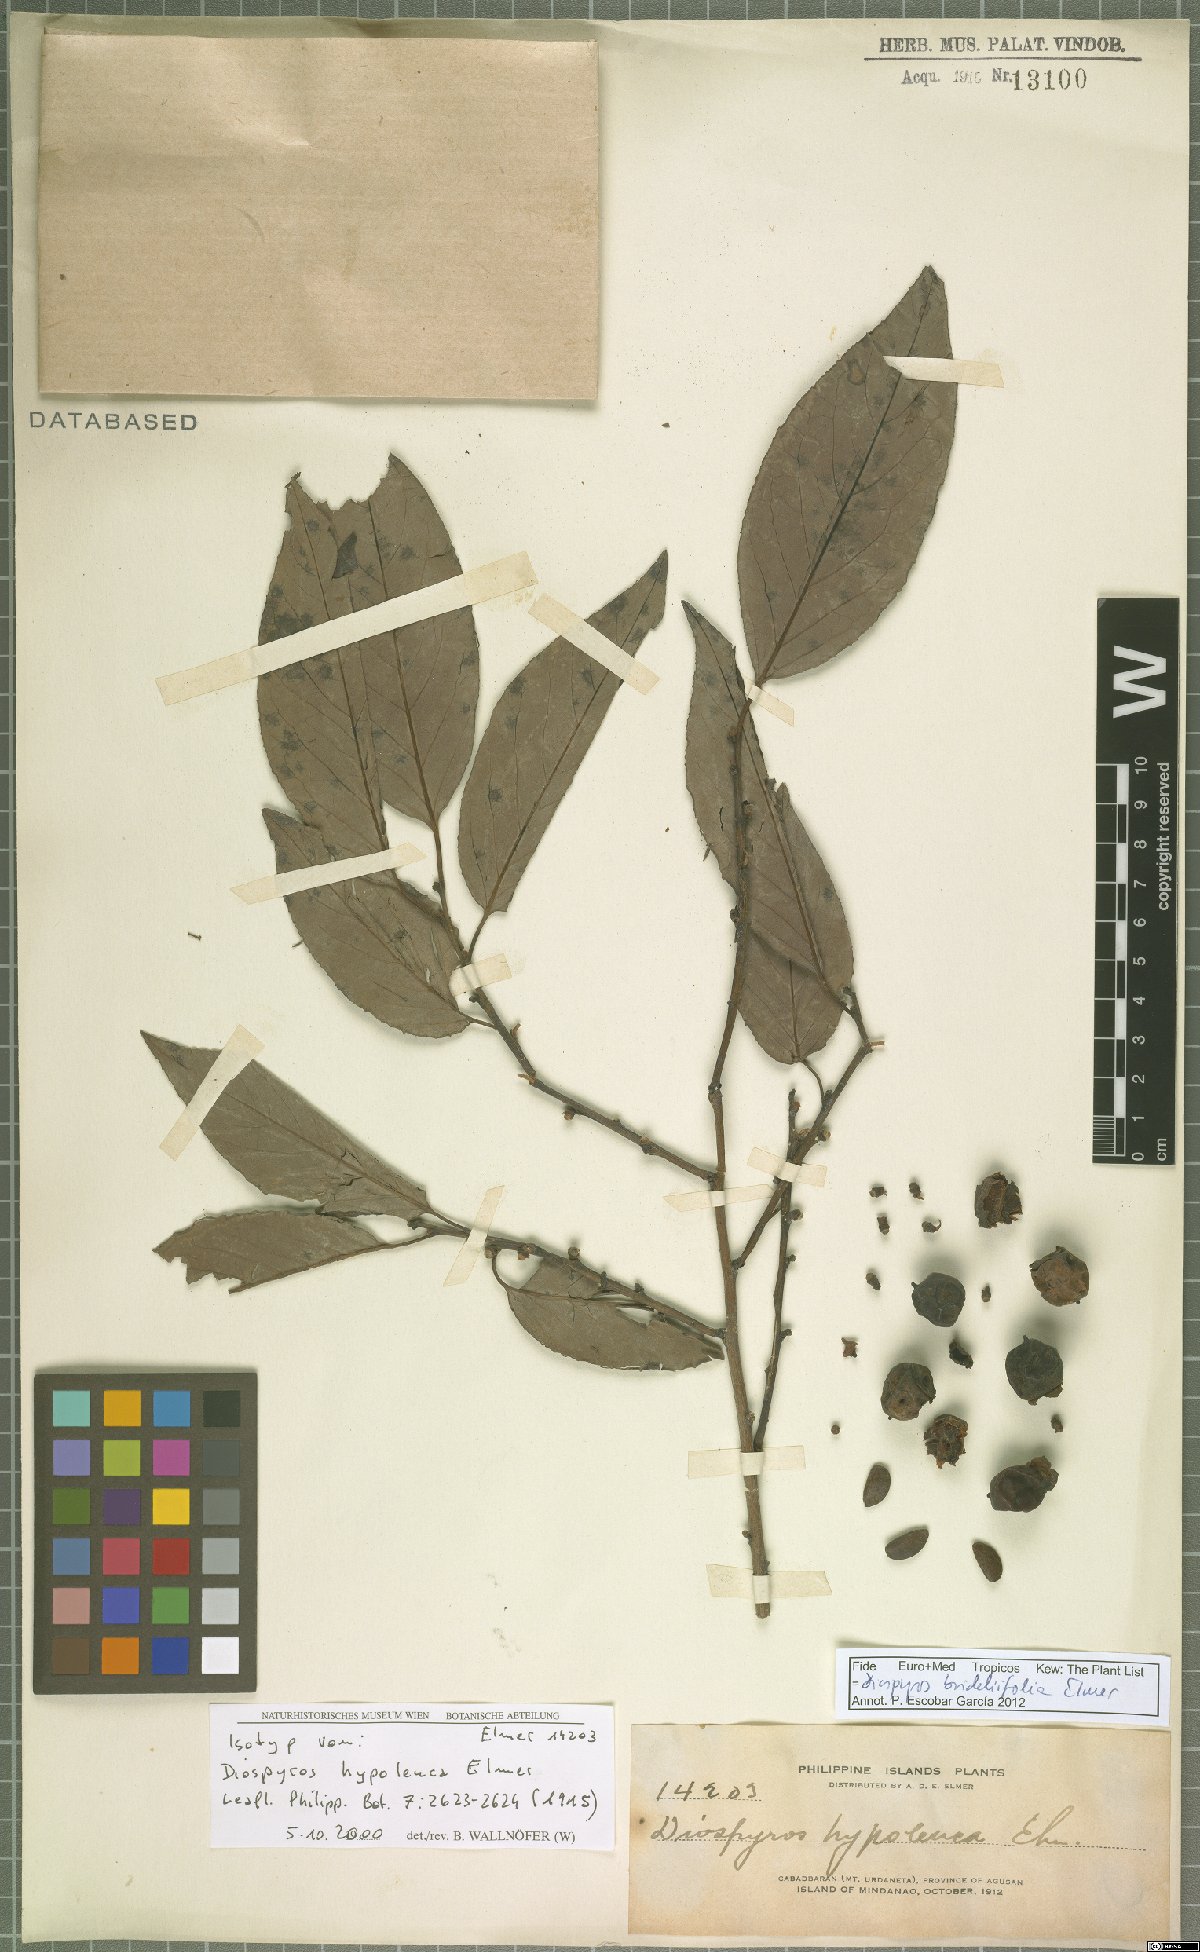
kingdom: Plantae
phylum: Tracheophyta
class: Magnoliopsida
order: Ericales
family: Ebenaceae
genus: Diospyros
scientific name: Diospyros brideliifolia
